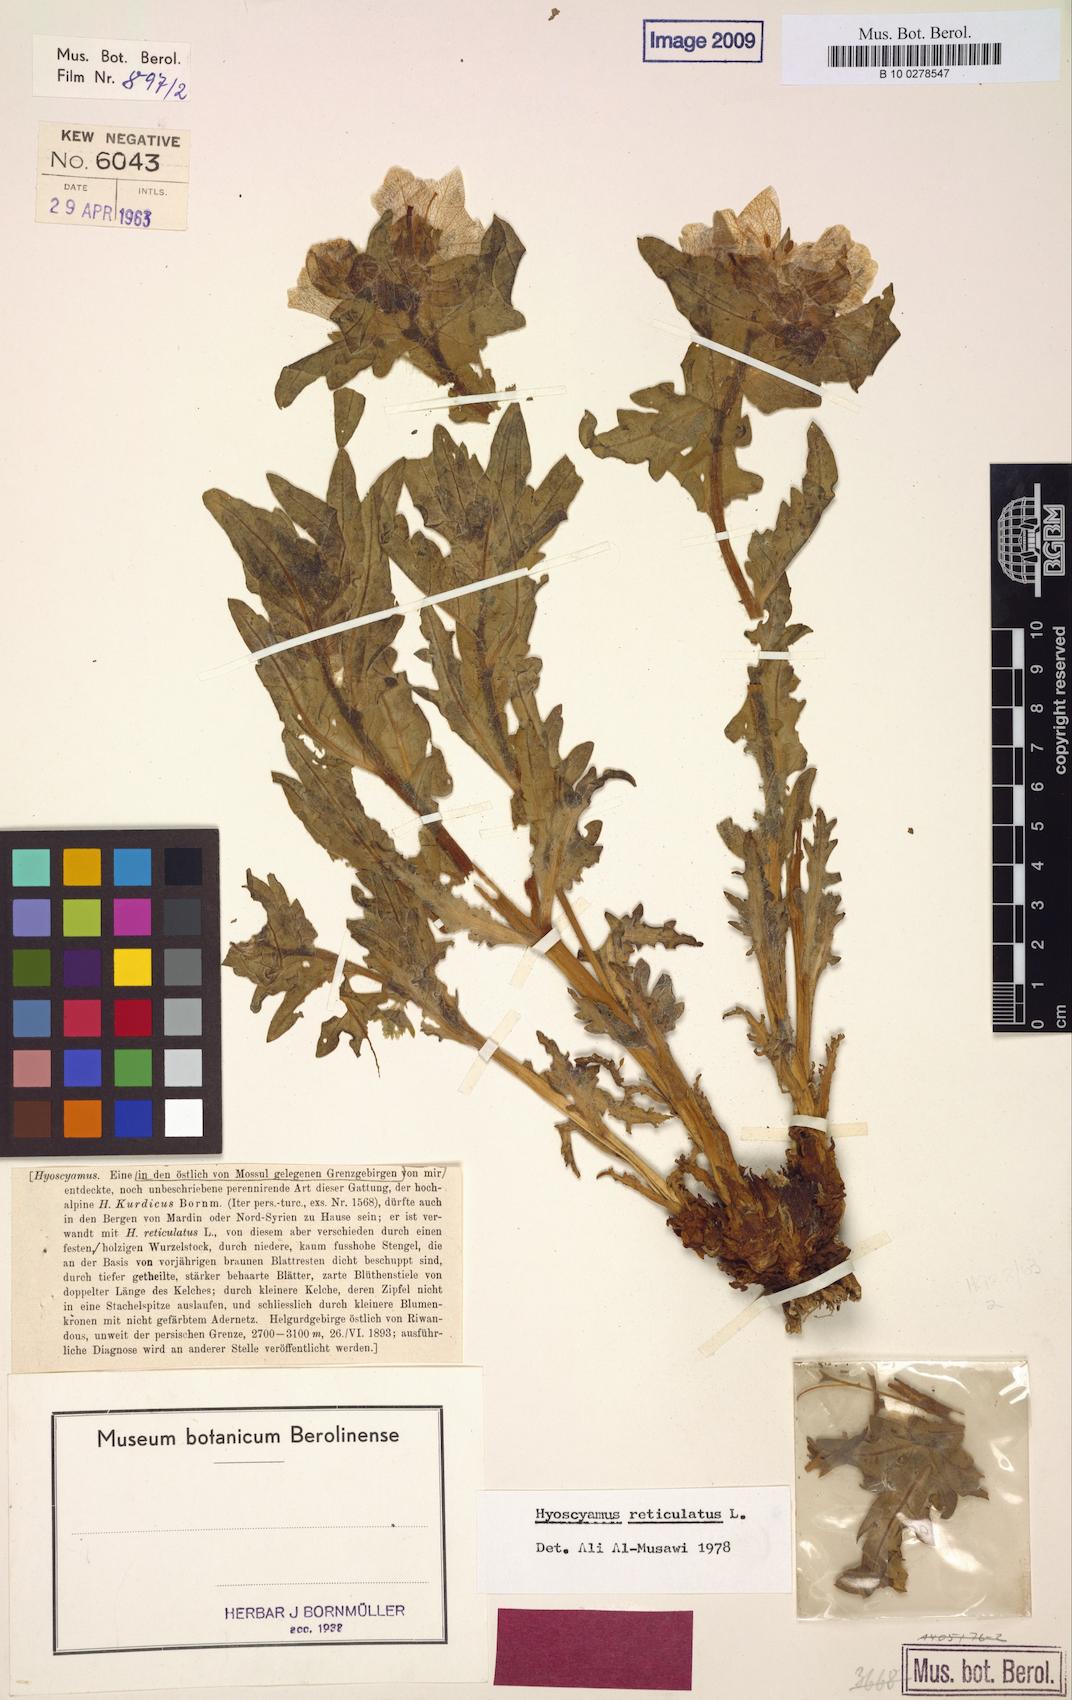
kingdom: Plantae
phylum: Tracheophyta
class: Magnoliopsida
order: Solanales
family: Solanaceae
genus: Hyoscyamus
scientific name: Hyoscyamus reticulatus
